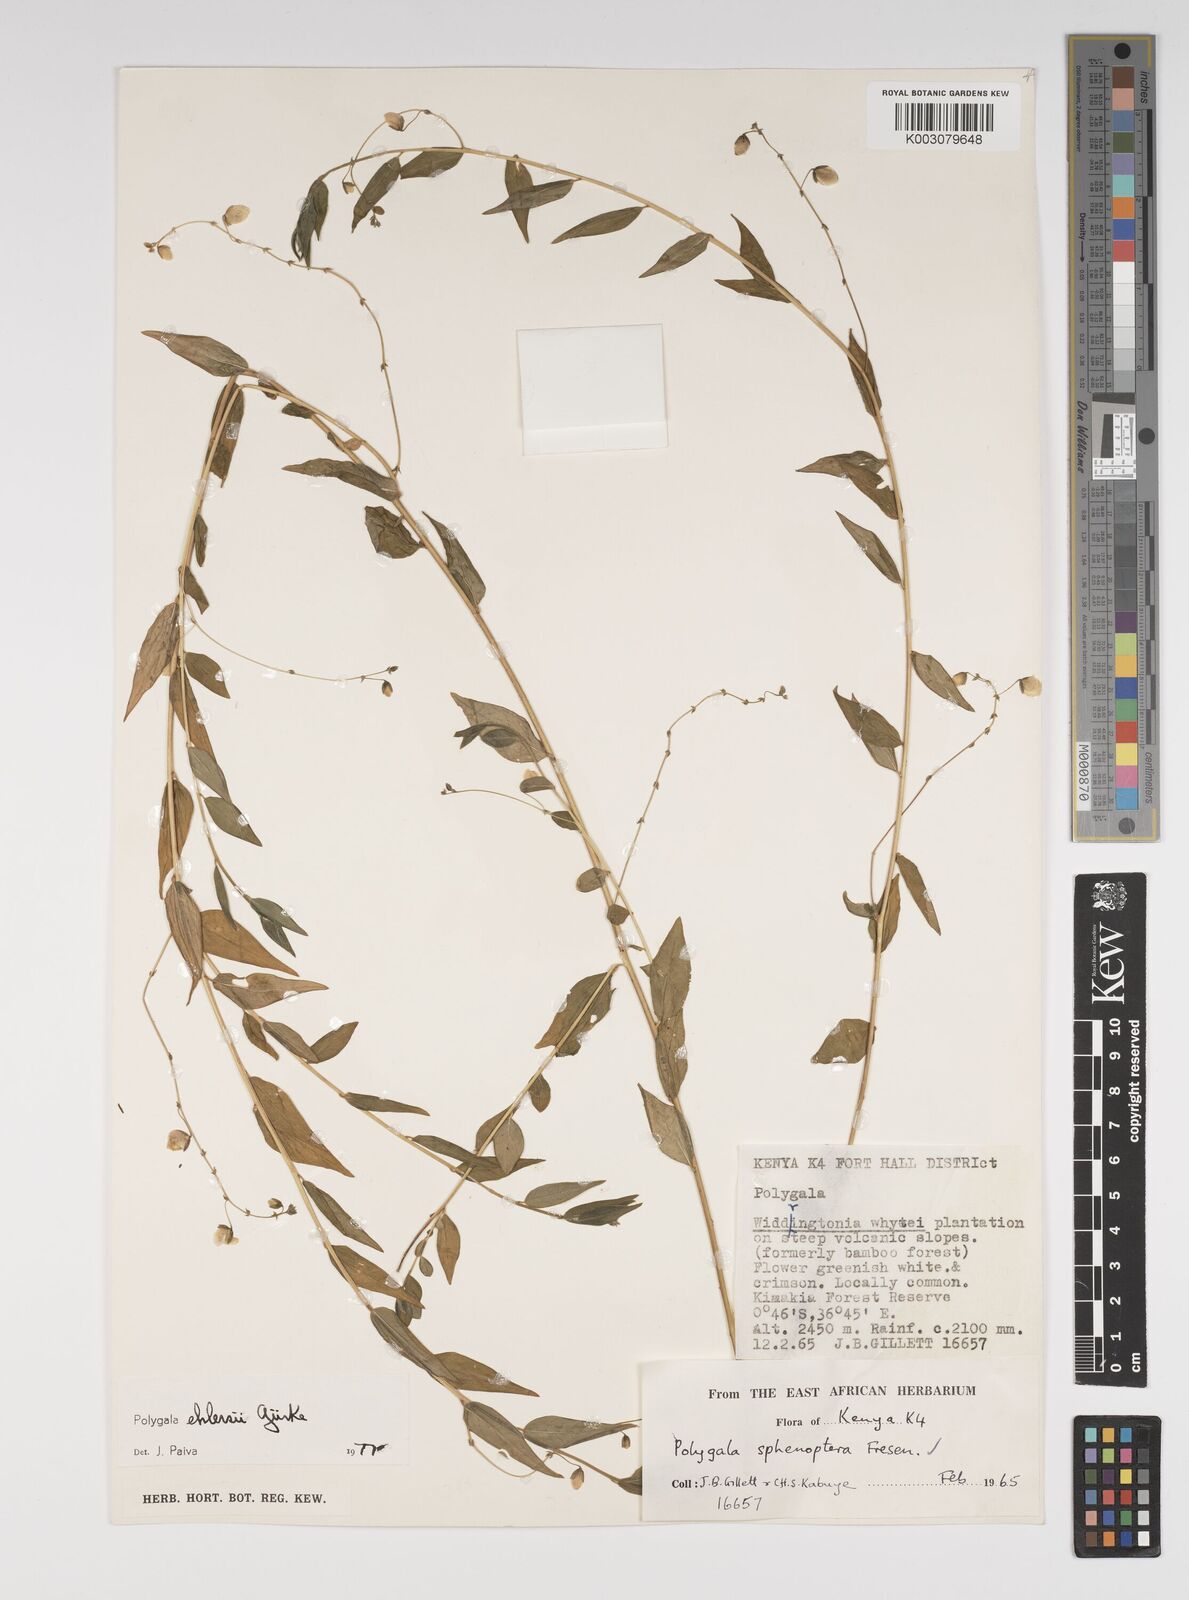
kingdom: Plantae
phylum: Tracheophyta
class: Magnoliopsida
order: Fabales
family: Polygalaceae
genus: Polygala
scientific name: Polygala ehlersii
